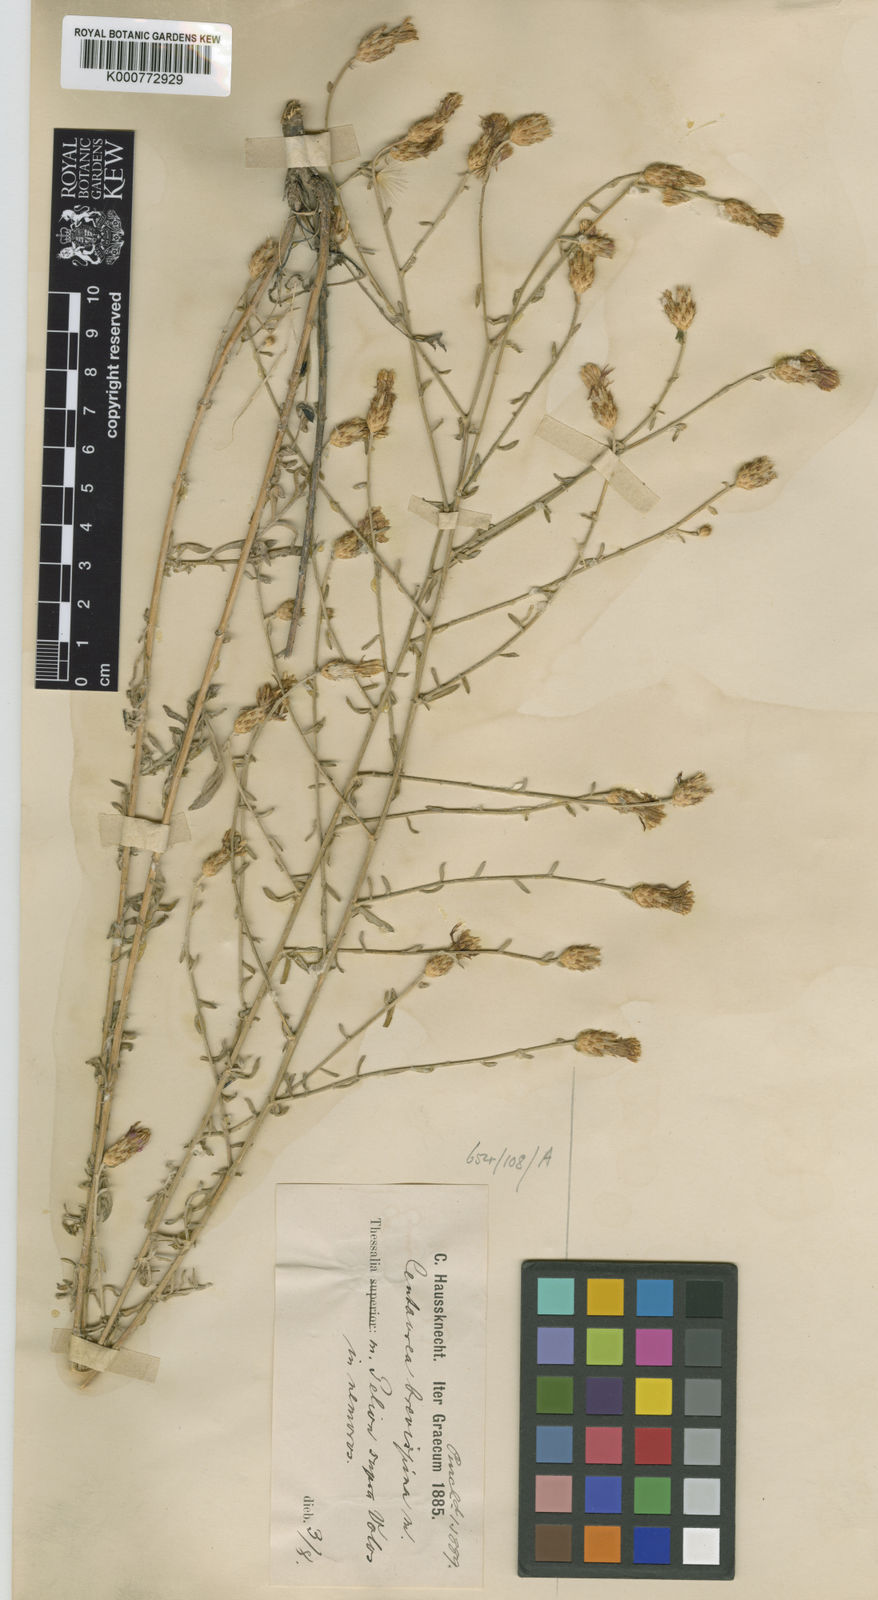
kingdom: Plantae
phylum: Tracheophyta
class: Magnoliopsida
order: Asterales
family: Asteraceae
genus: Centaurea
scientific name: Centaurea tymphaea
